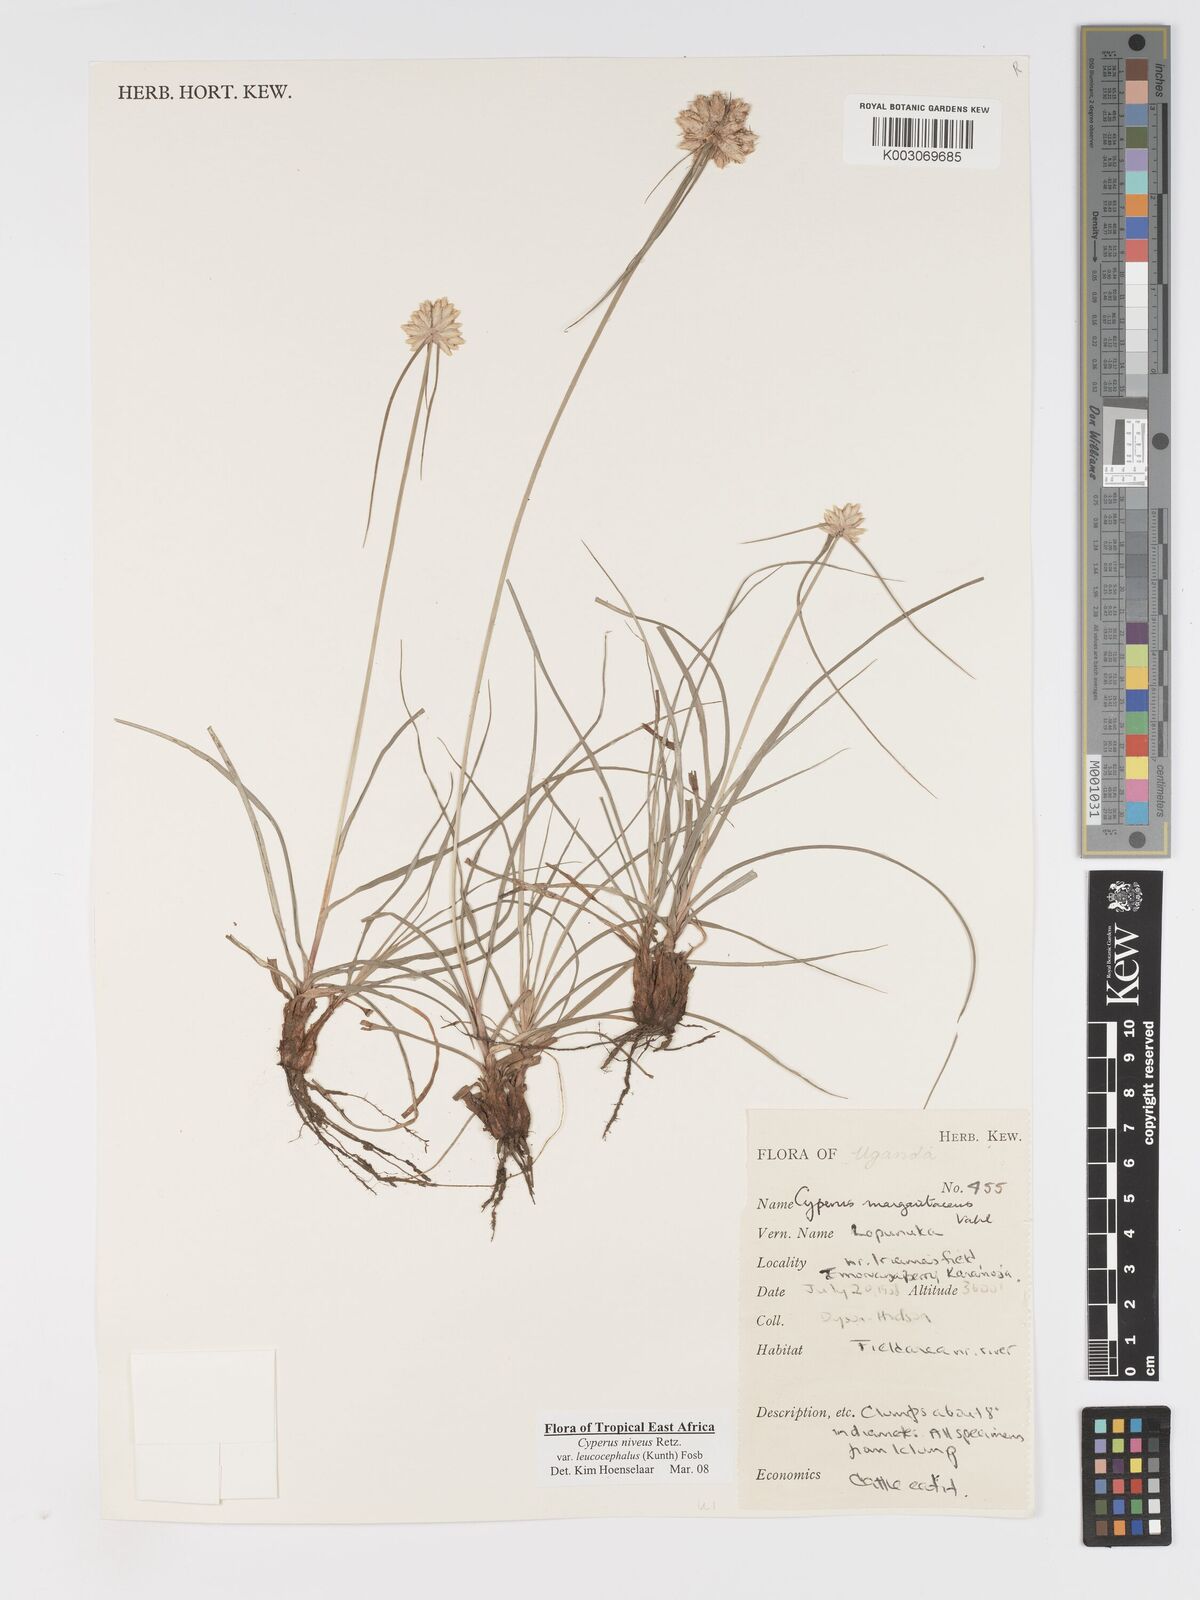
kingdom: Plantae
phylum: Tracheophyta
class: Liliopsida
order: Poales
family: Cyperaceae
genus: Cyperus
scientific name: Cyperus niveus
